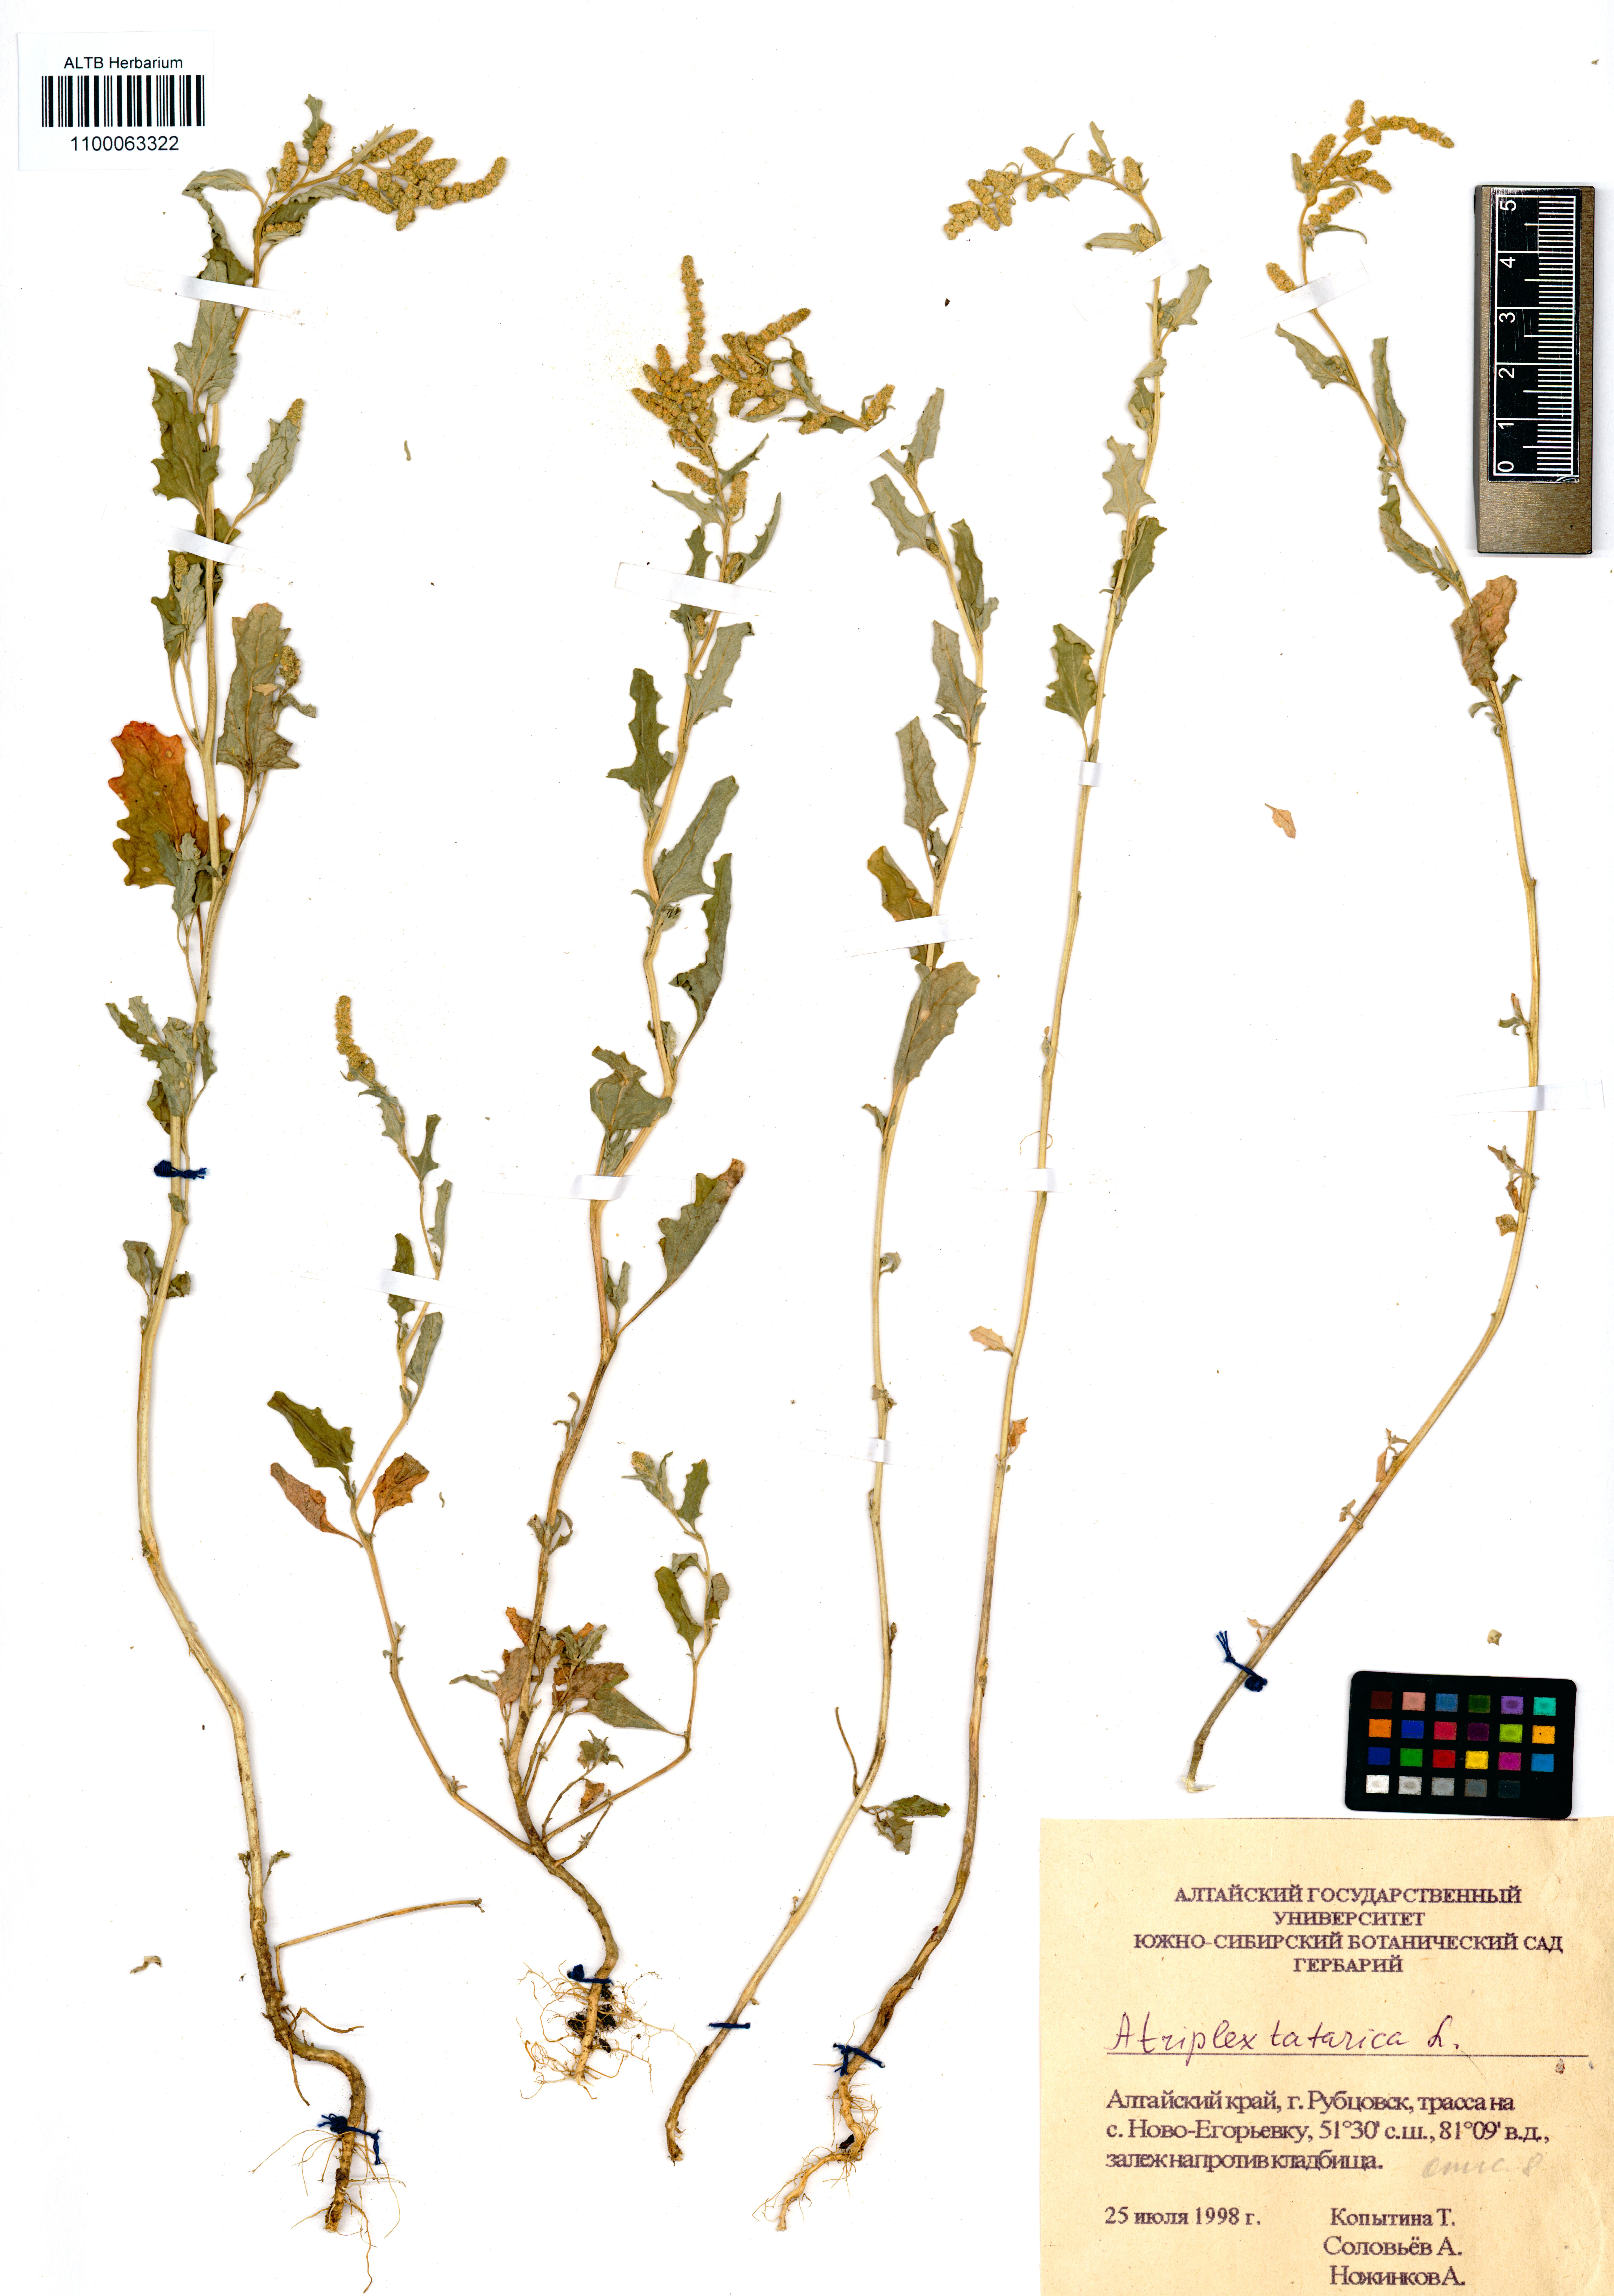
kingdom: Plantae
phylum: Tracheophyta
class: Magnoliopsida
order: Caryophyllales
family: Amaranthaceae
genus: Atriplex
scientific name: Atriplex tatarica
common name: Tatarian orache
